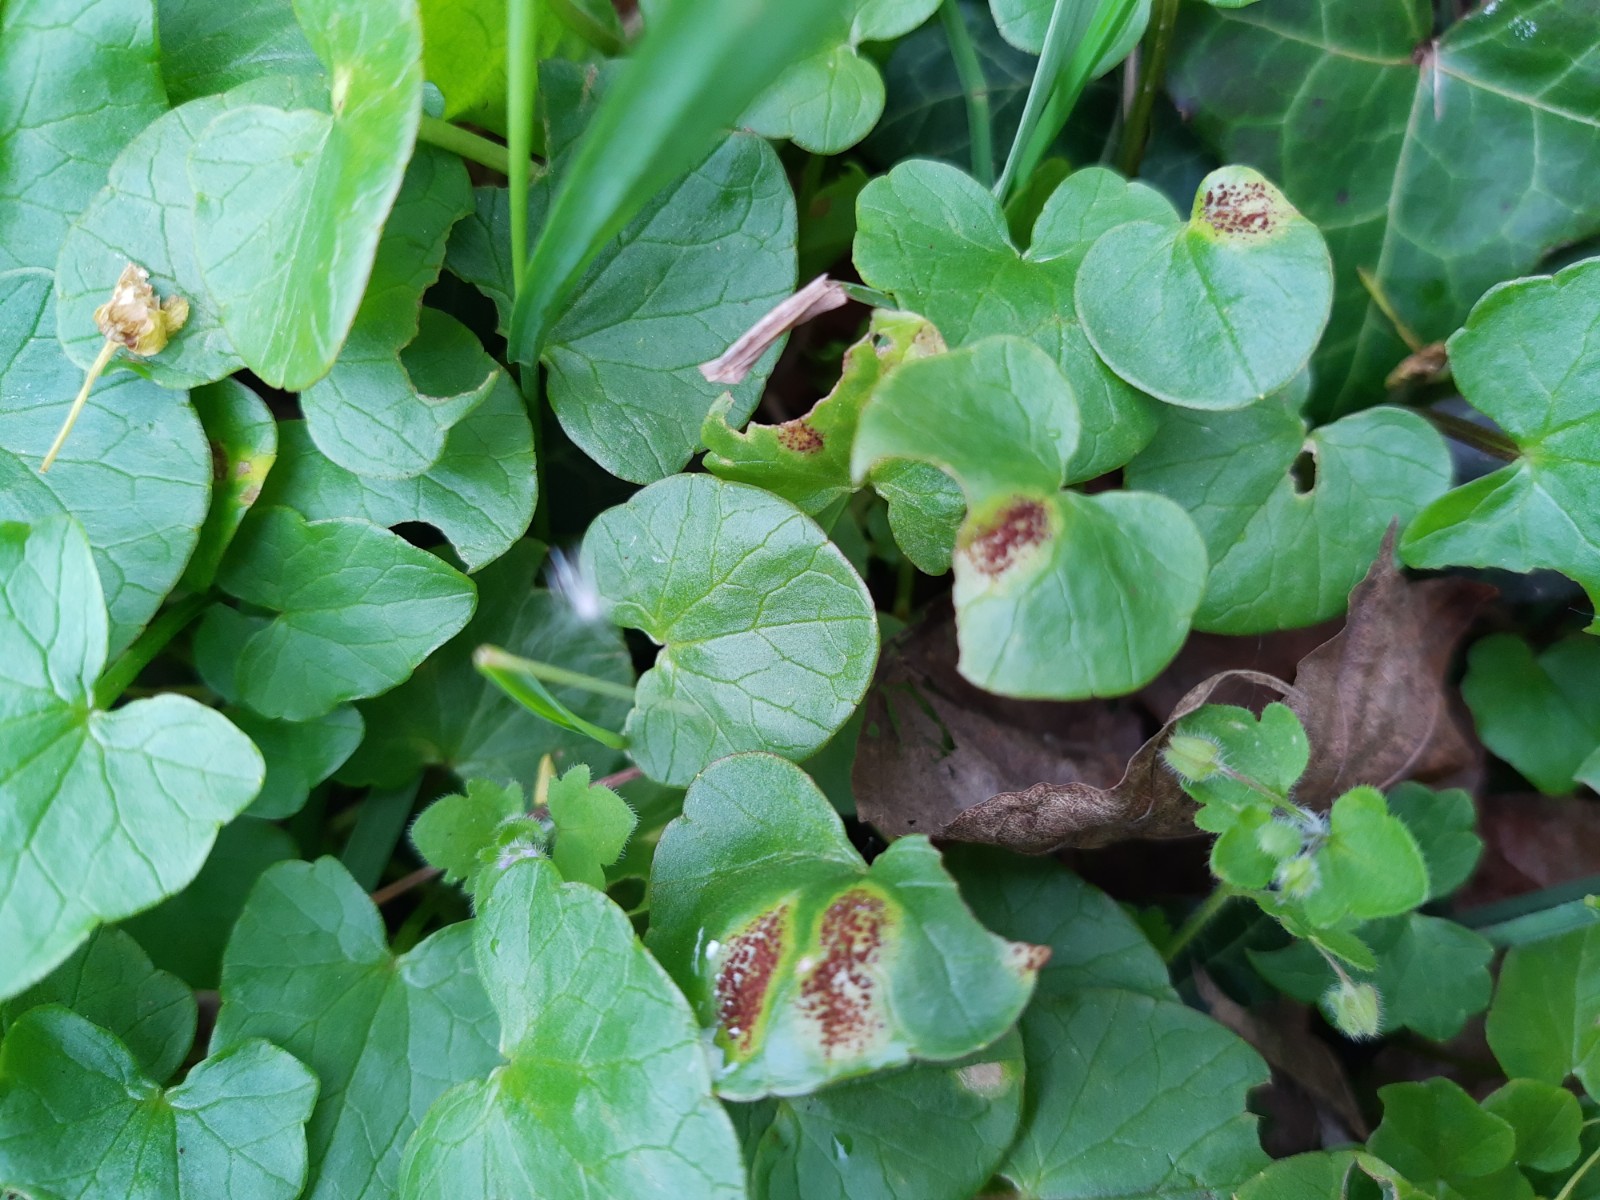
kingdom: Fungi
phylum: Basidiomycota
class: Pucciniomycetes
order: Pucciniales
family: Pucciniaceae
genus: Uromyces
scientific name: Uromyces ficariae
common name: vorterod-encellerust
